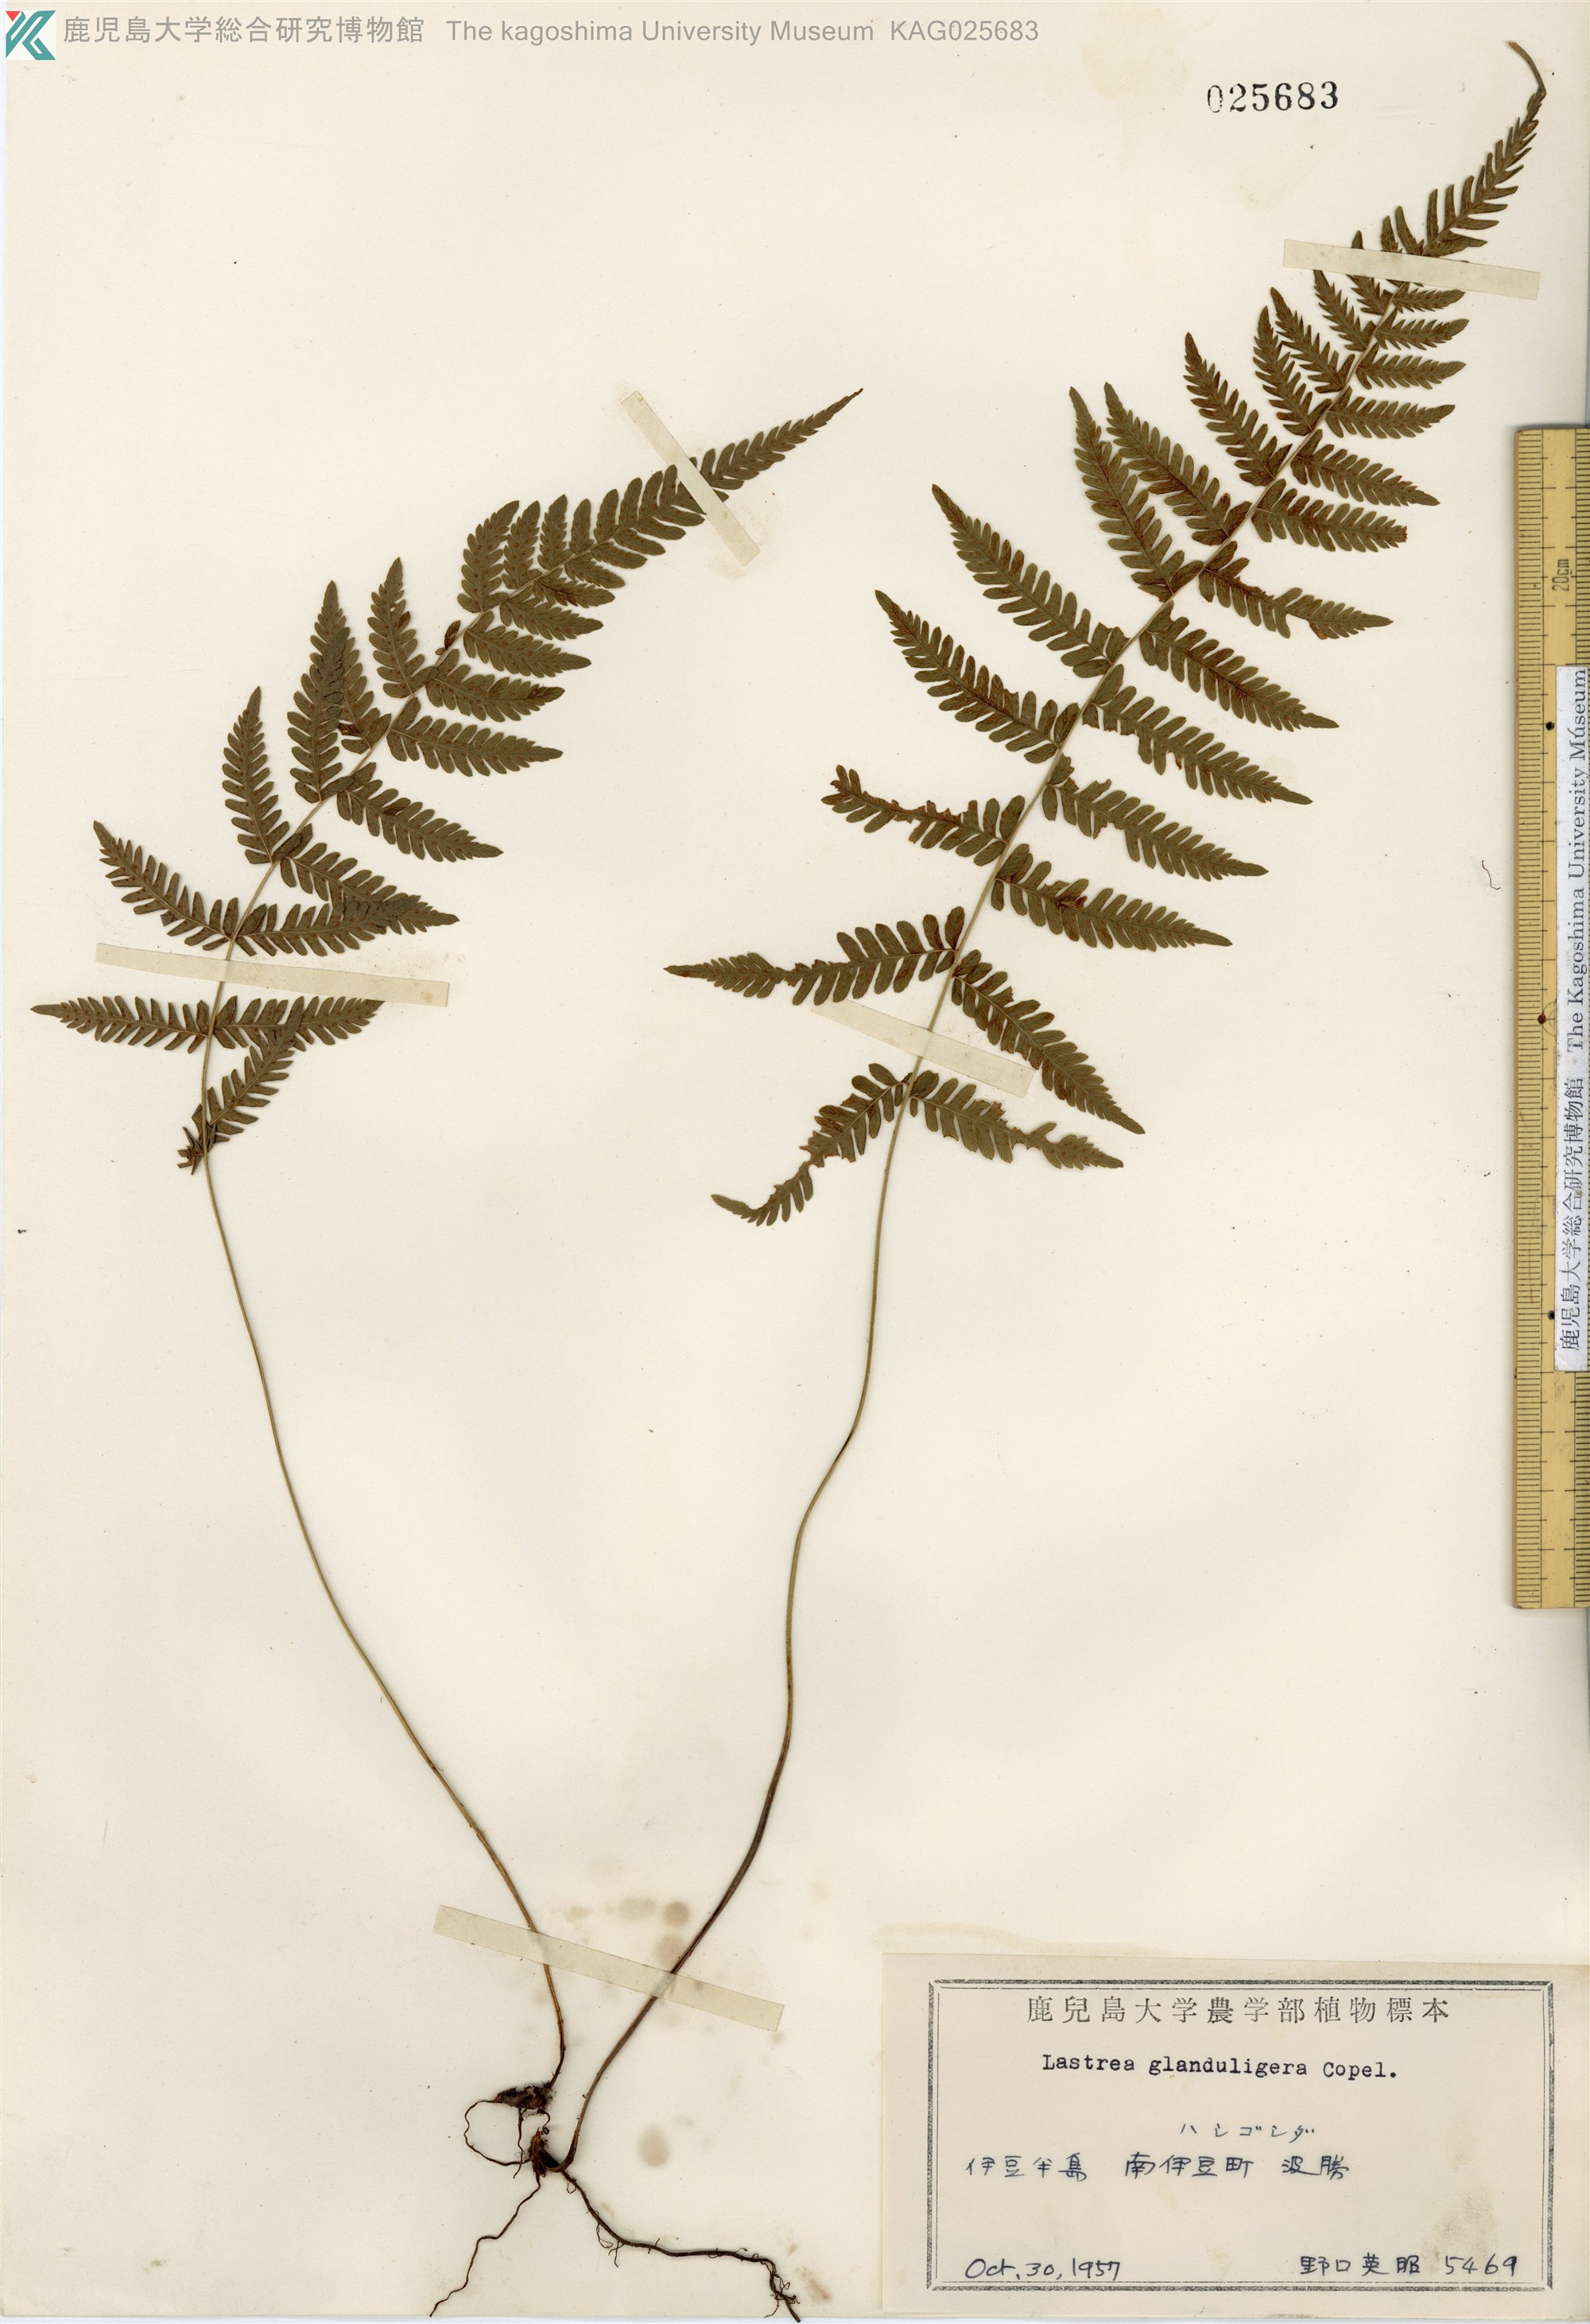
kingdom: Plantae
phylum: Tracheophyta
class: Polypodiopsida
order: Polypodiales
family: Thelypteridaceae
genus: Amauropelta
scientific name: Amauropelta angustifrons
